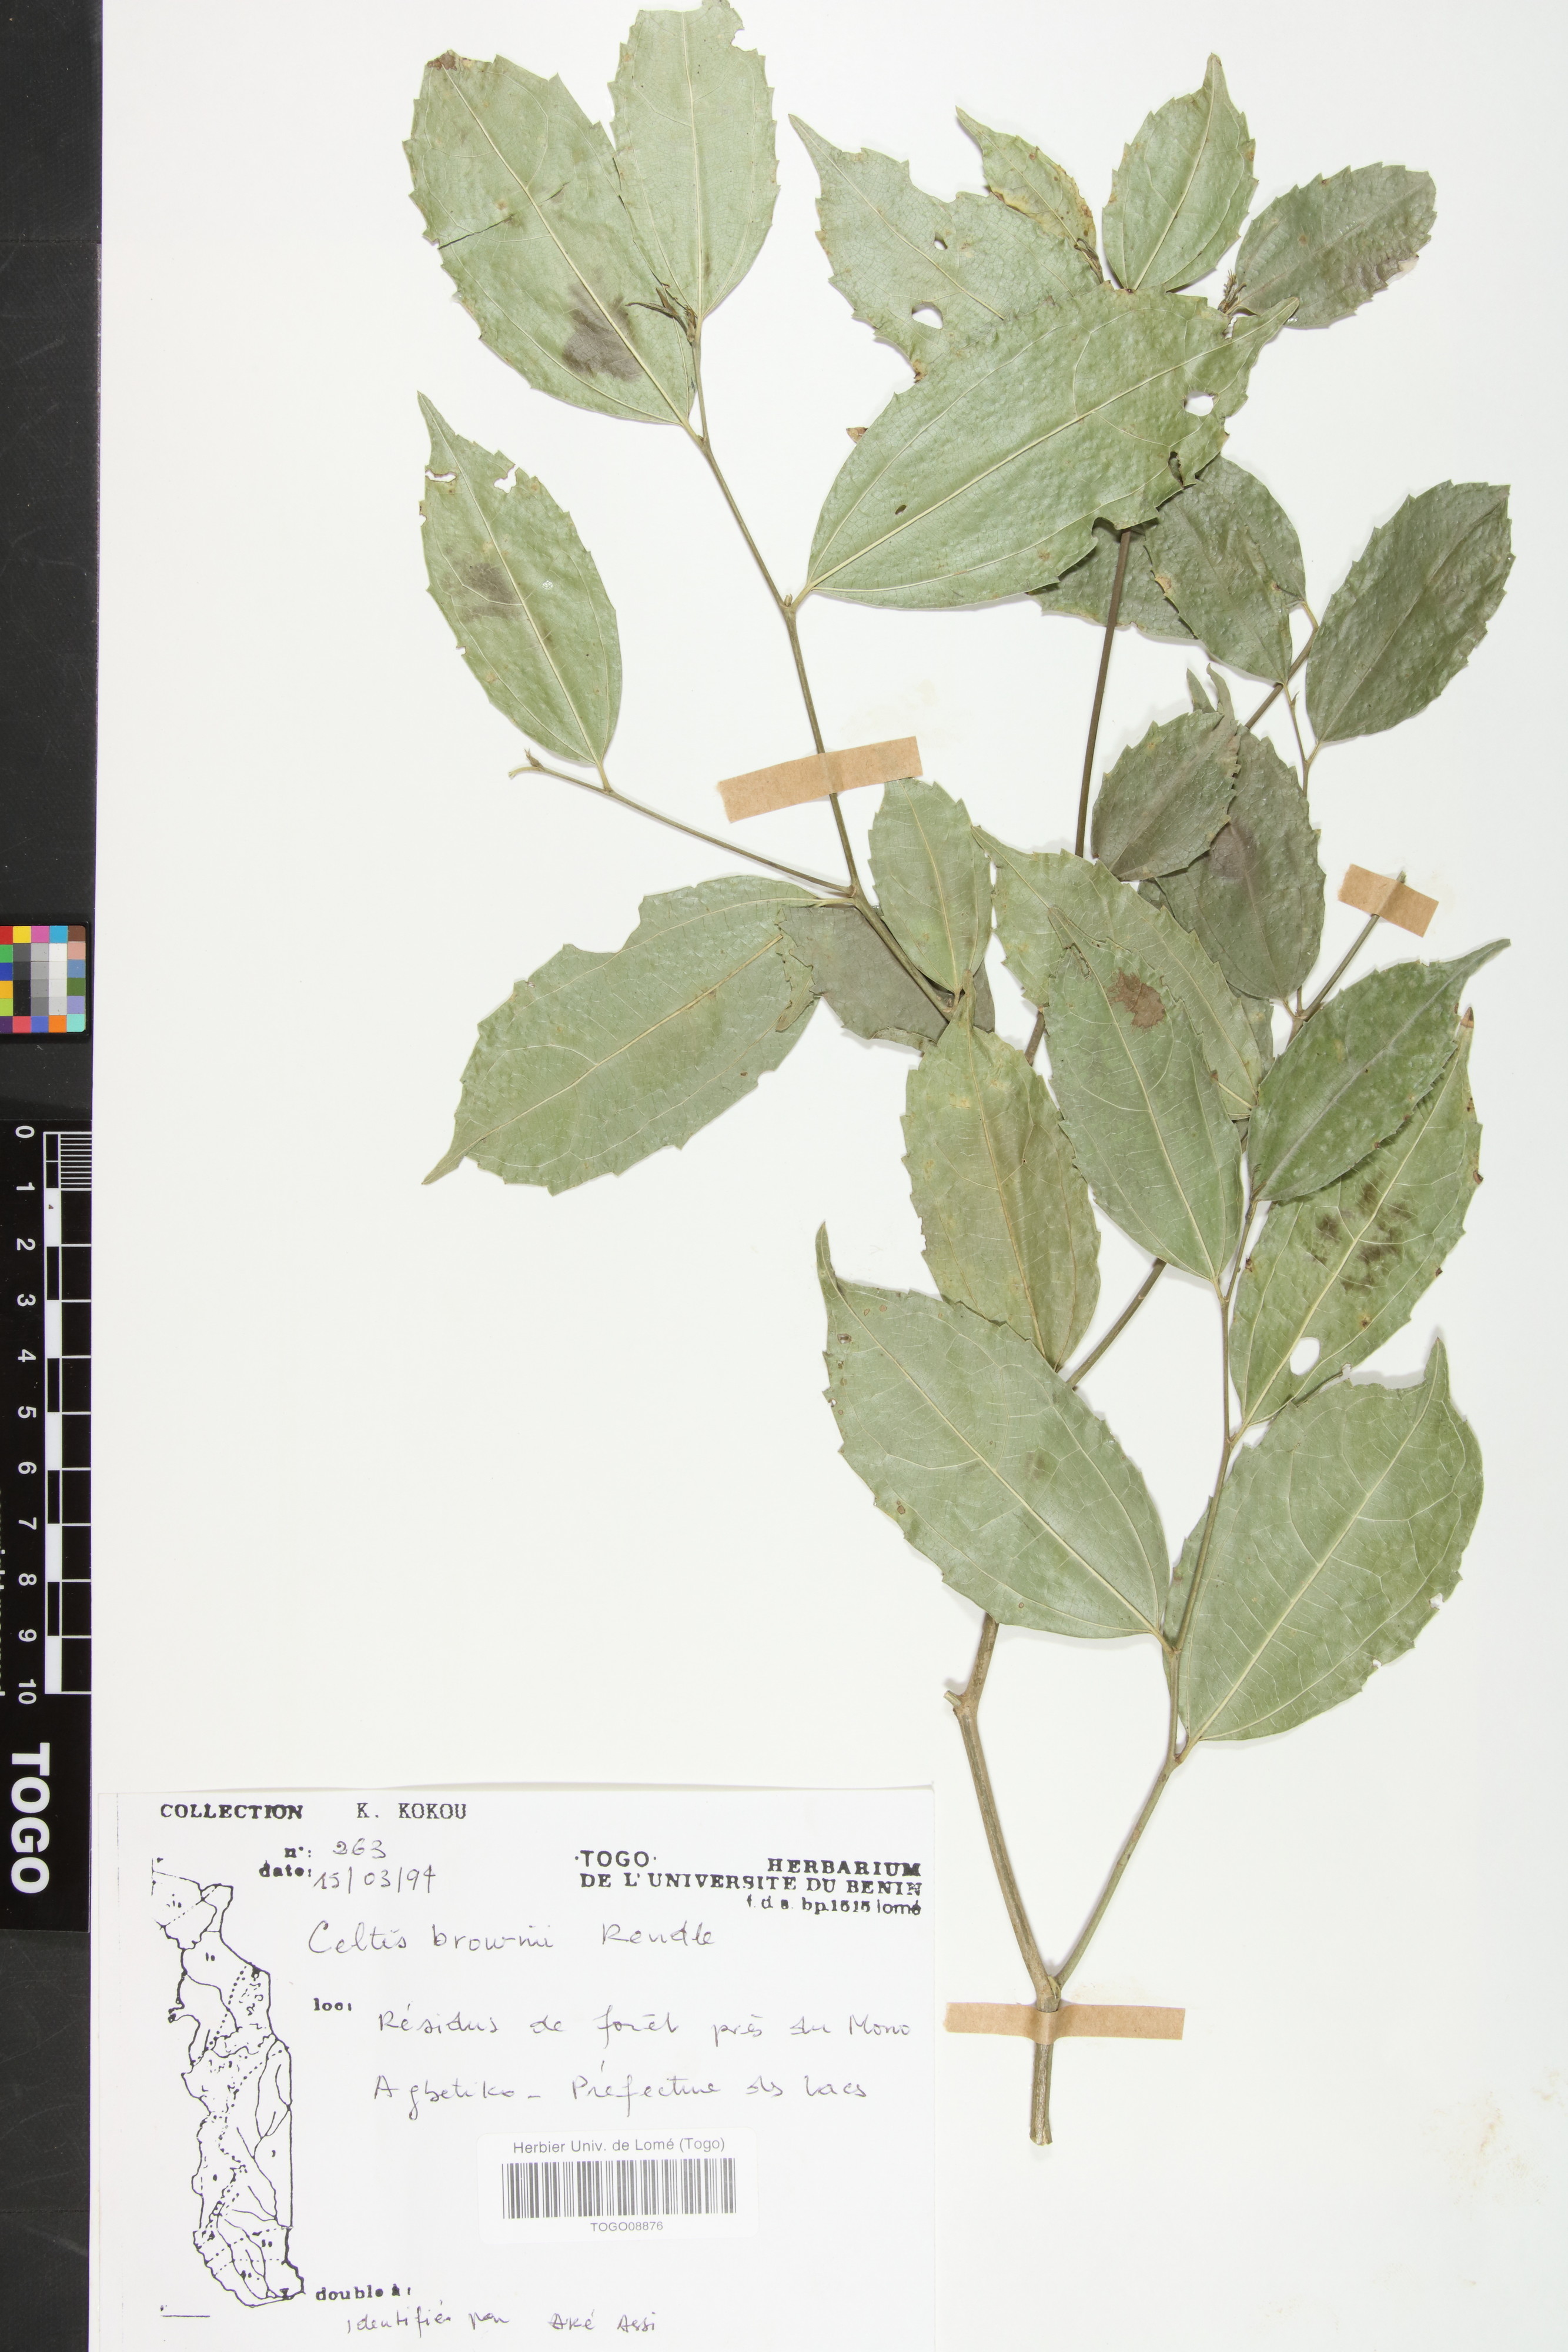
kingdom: Plantae
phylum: Tracheophyta
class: Magnoliopsida
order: Rosales
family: Cannabaceae
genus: Celtis
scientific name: Celtis philippensis
